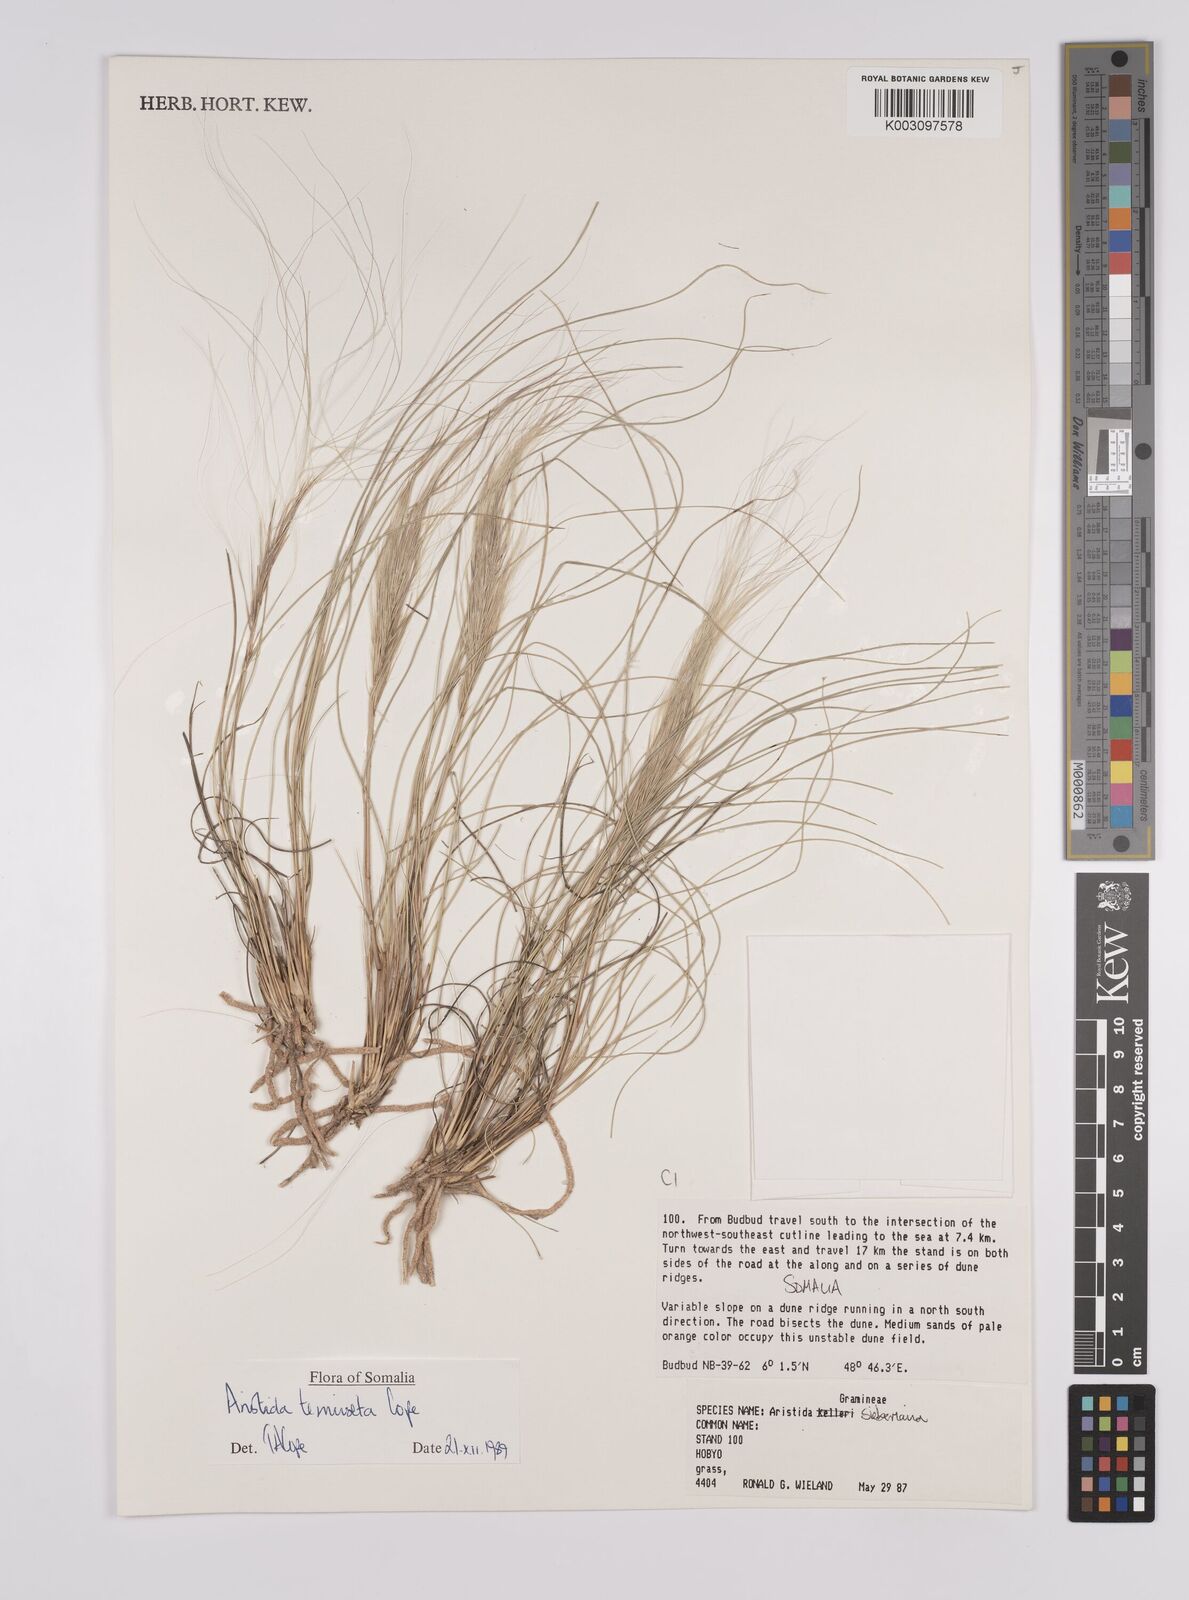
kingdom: Plantae
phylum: Tracheophyta
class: Liliopsida
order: Poales
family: Poaceae
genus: Aristida
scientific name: Aristida tenuiseta
